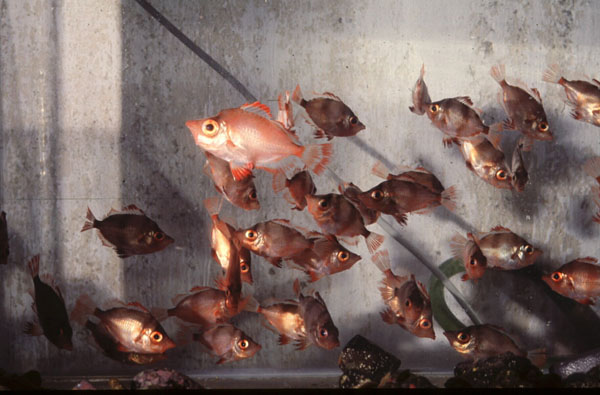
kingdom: Animalia
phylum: Chordata
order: Perciformes
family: Caproidae
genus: Capros
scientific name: Capros aper
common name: Boarfish
